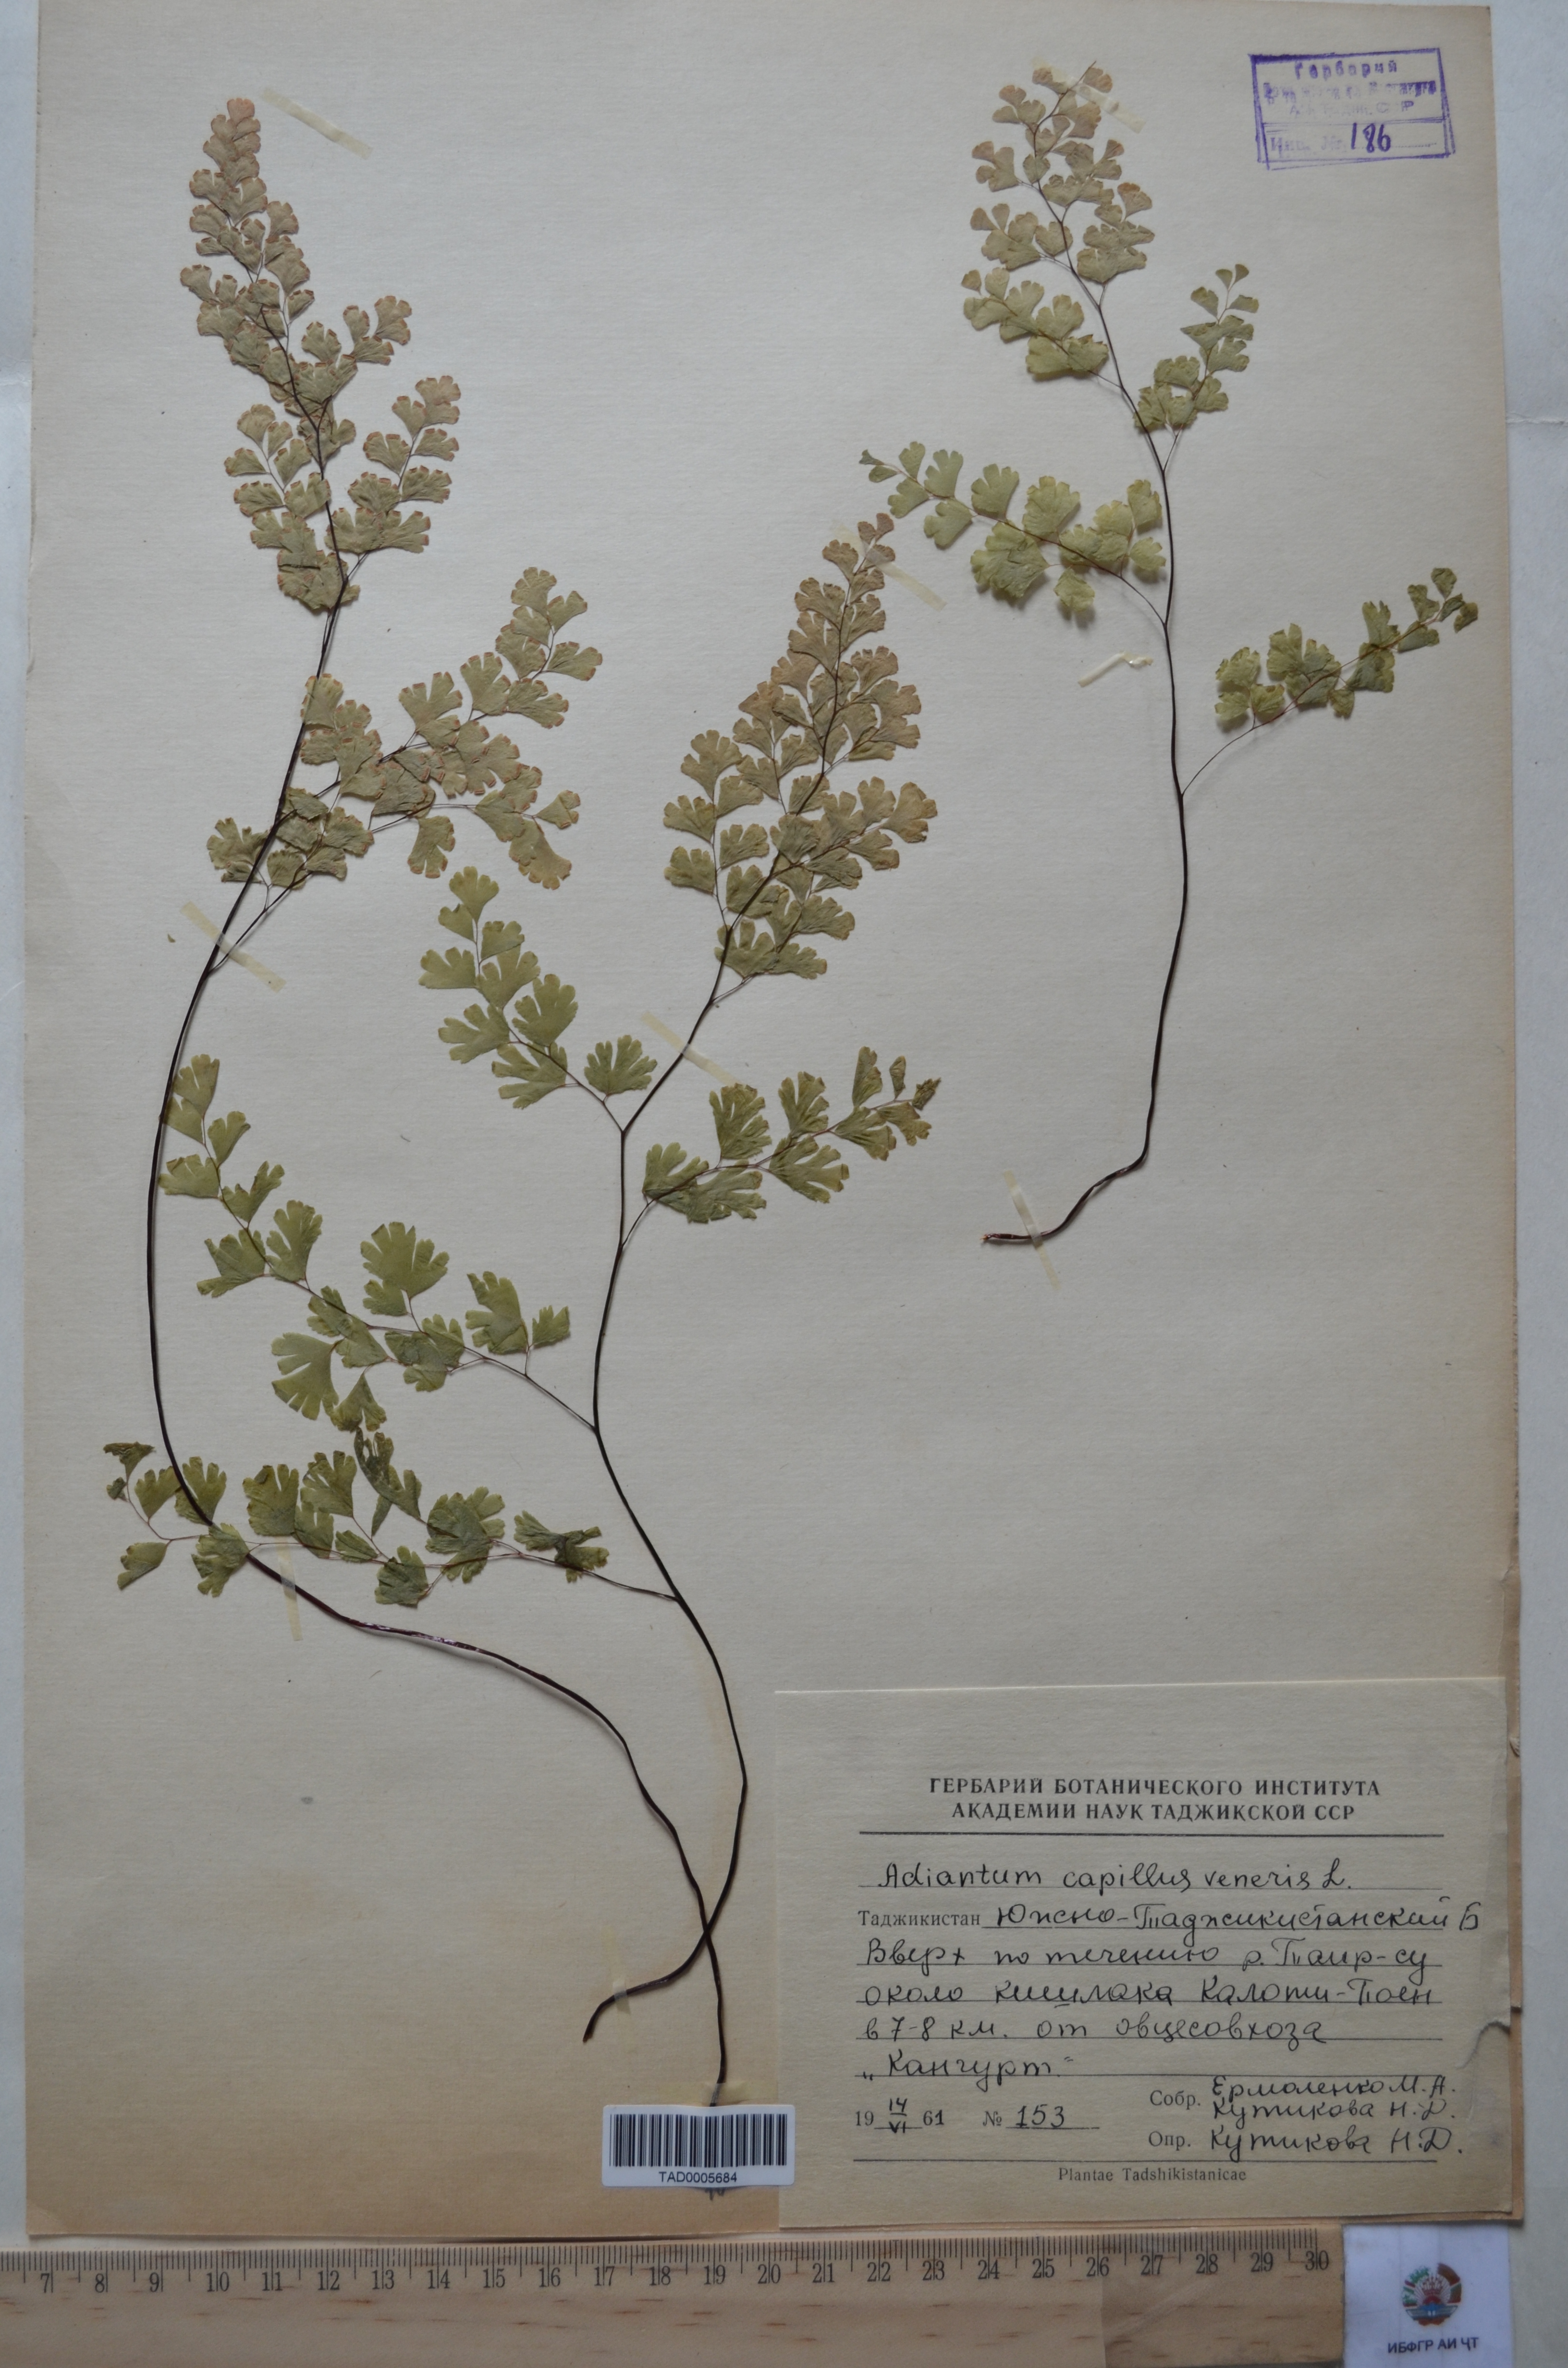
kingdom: Plantae
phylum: Tracheophyta
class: Polypodiopsida
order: Polypodiales
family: Pteridaceae
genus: Adiantum
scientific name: Adiantum capillus-veneris
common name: Maidenhair fern
